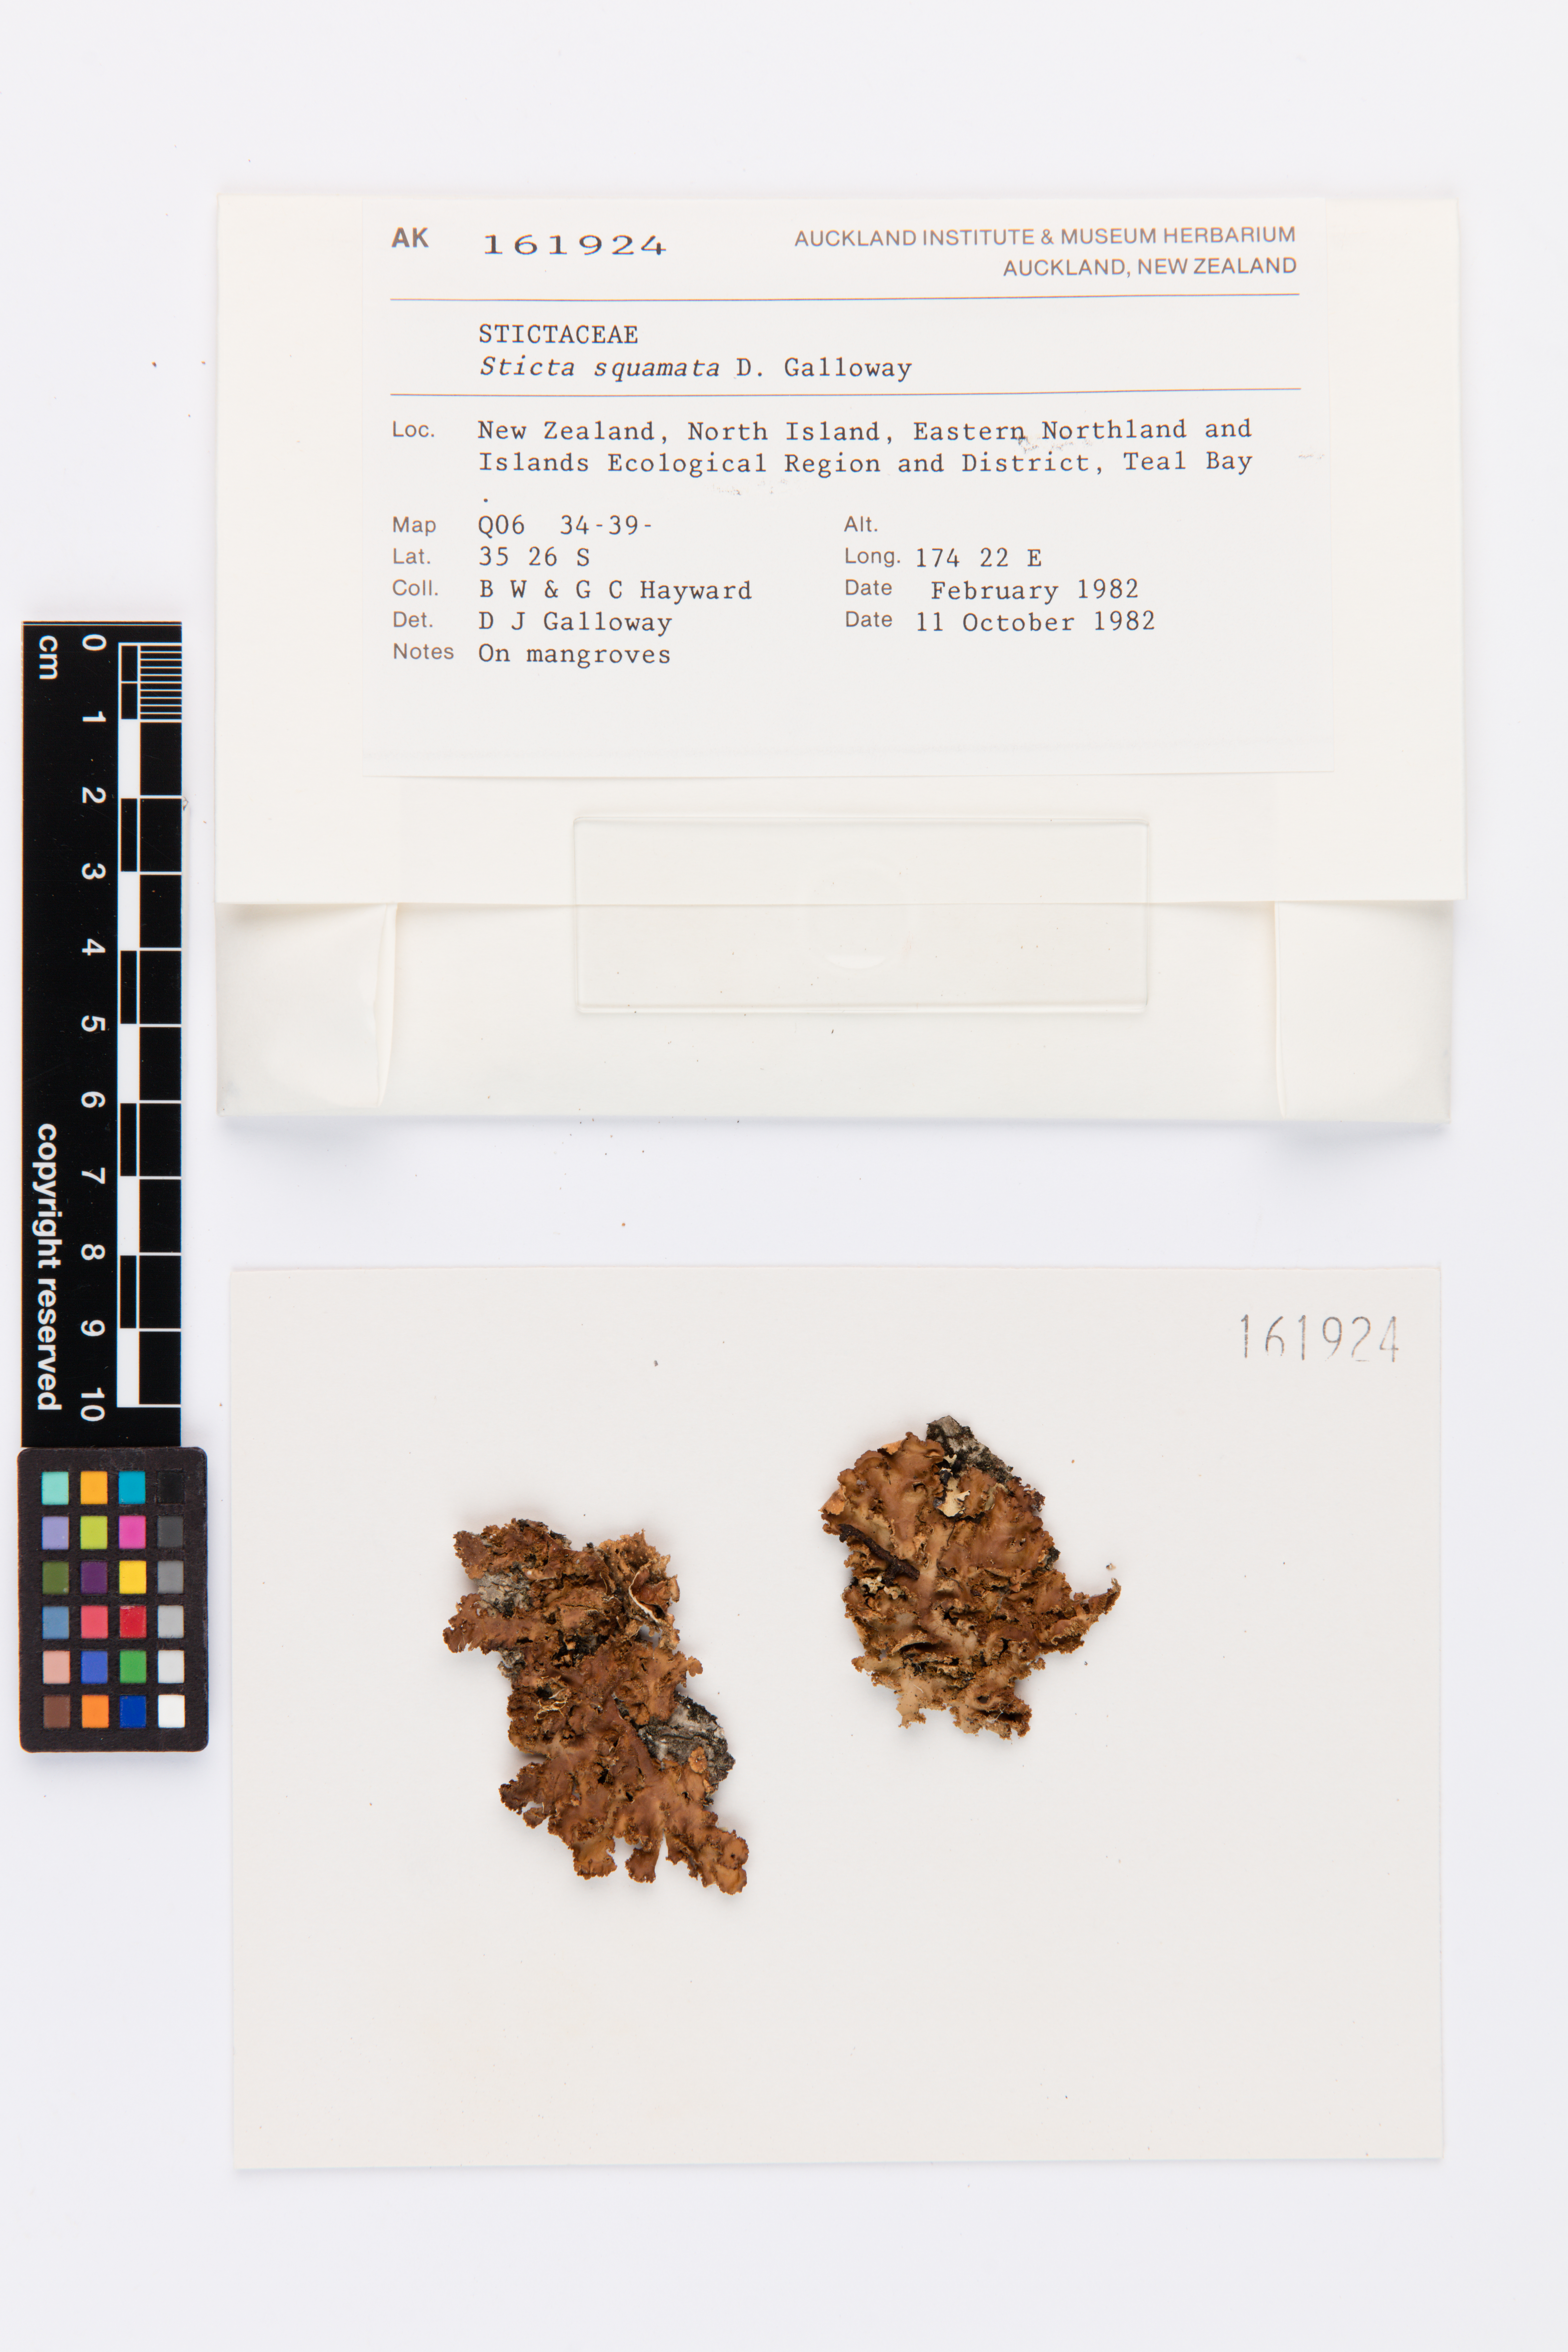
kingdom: Fungi
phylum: Ascomycota
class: Lecanoromycetes
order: Peltigerales
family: Lobariaceae
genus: Sticta
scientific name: Sticta squamata
